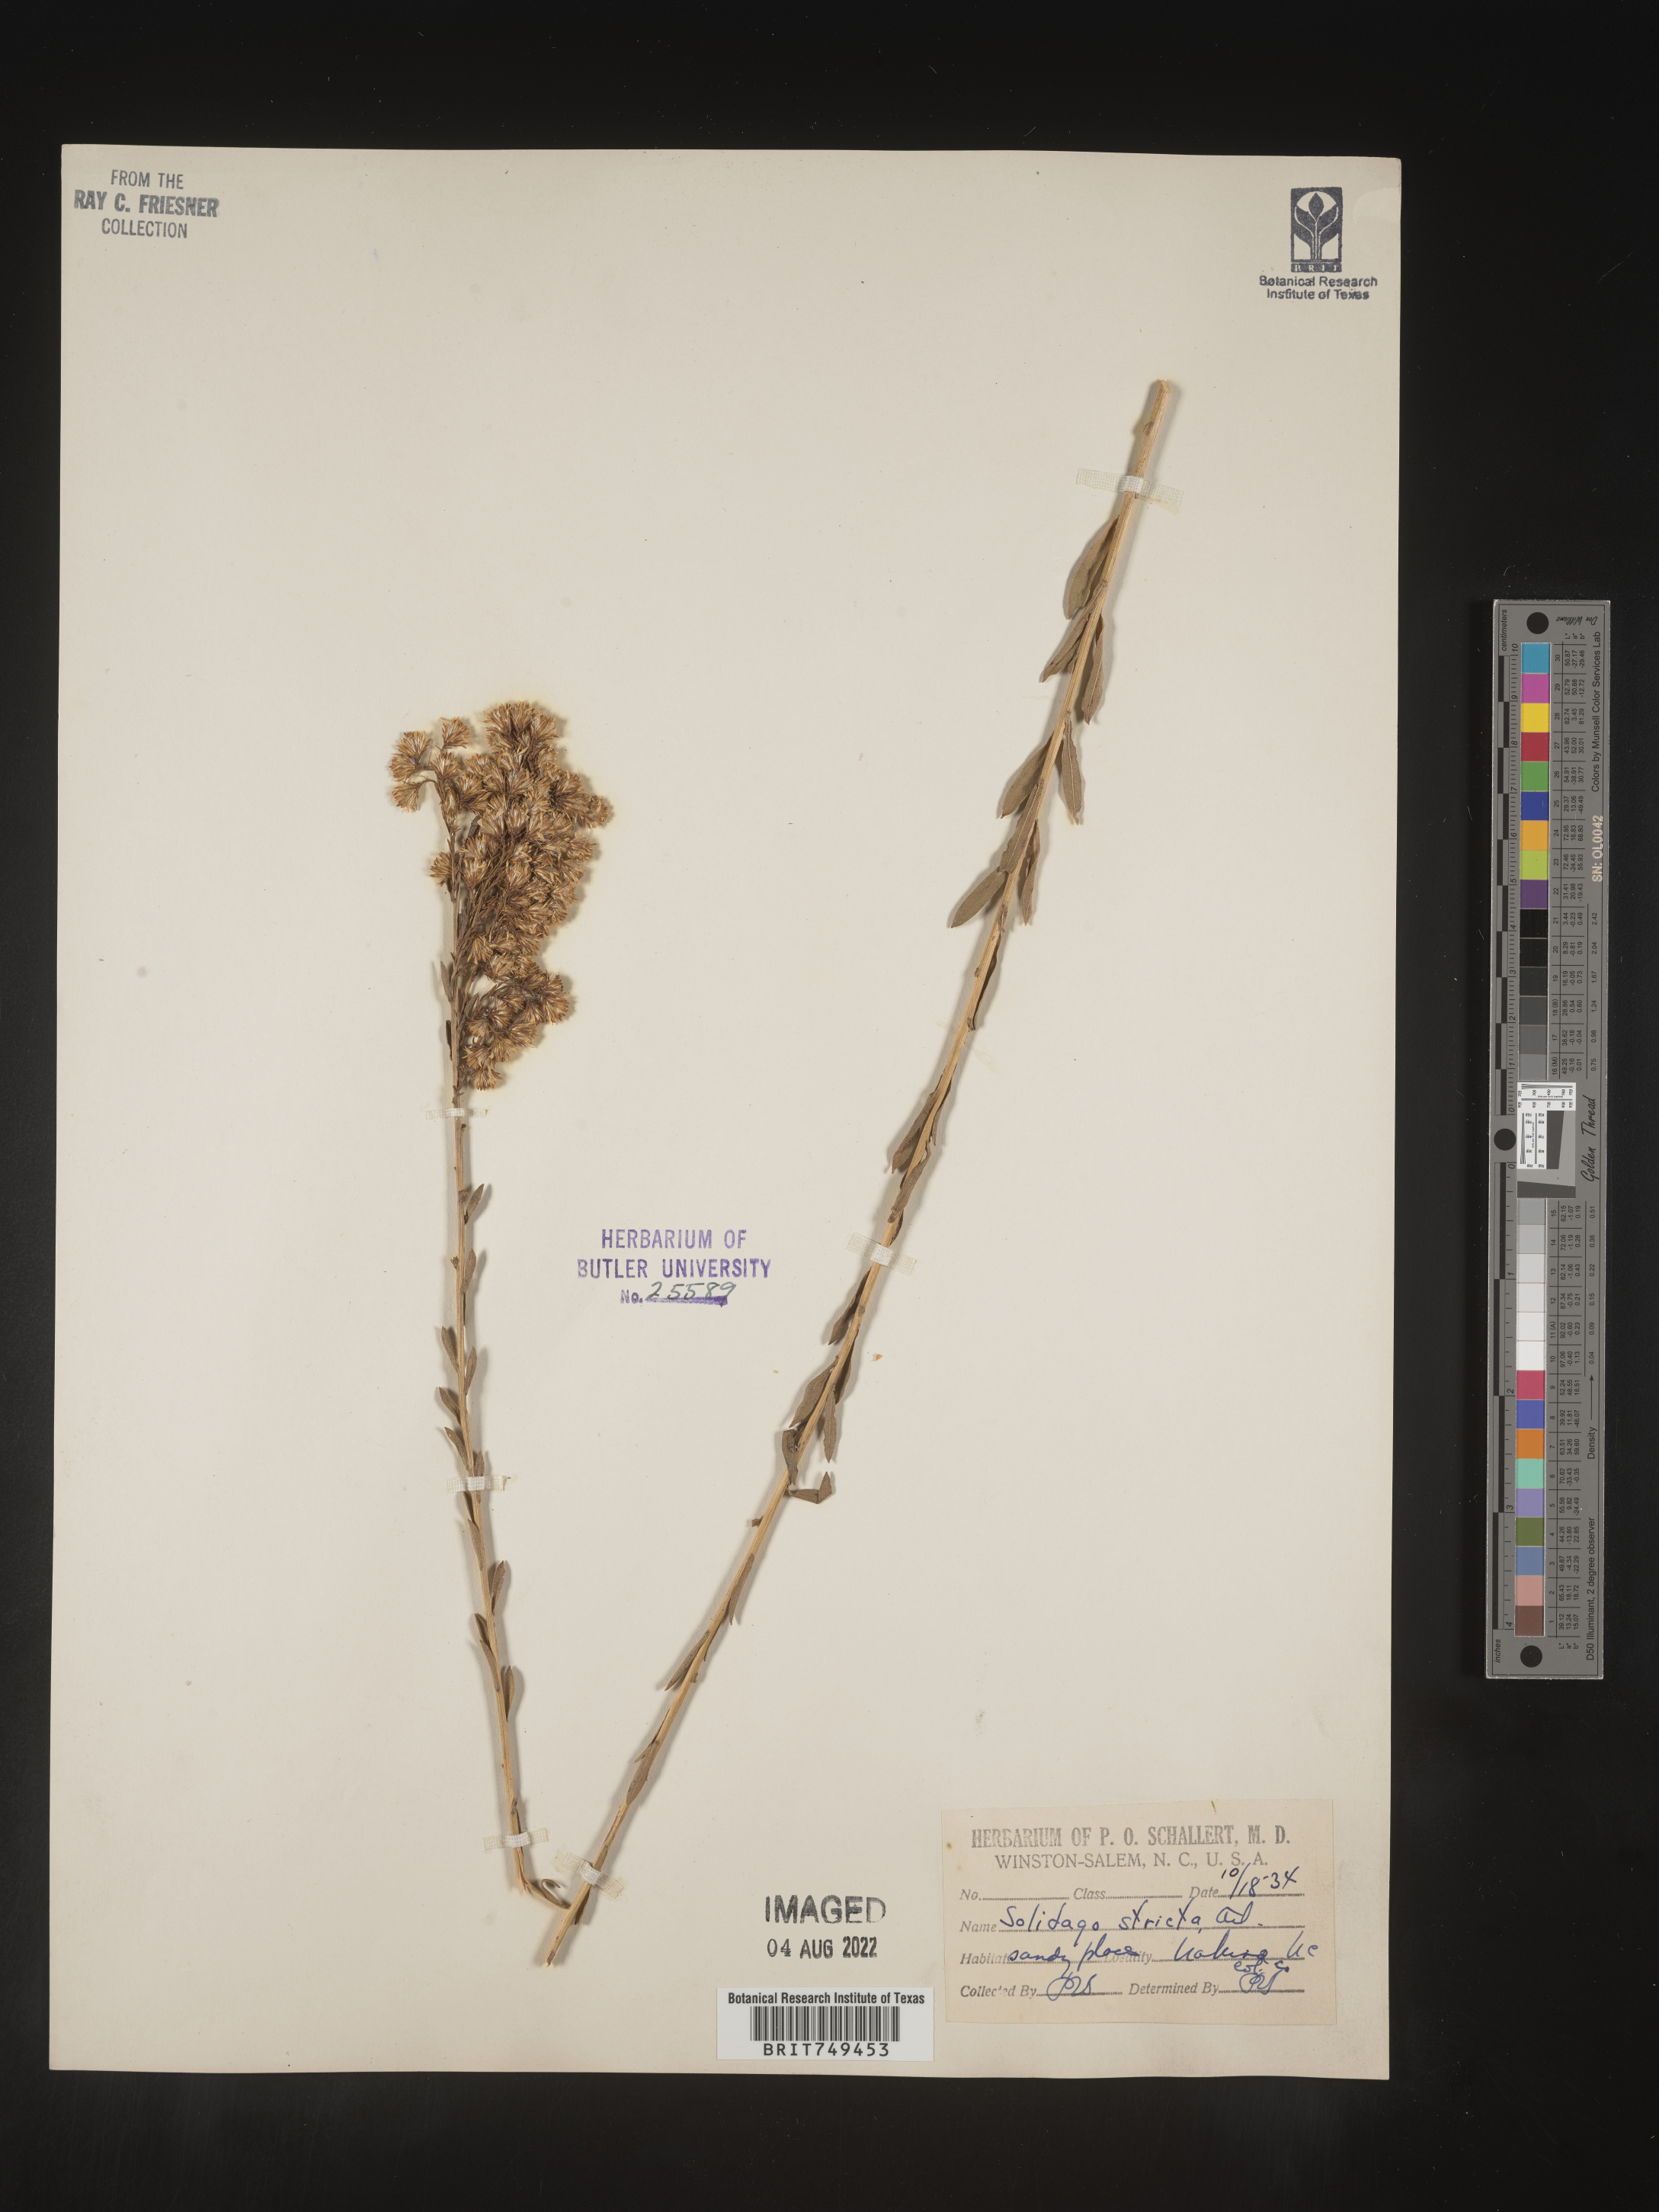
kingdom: Plantae
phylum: Tracheophyta
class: Magnoliopsida
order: Asterales
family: Asteraceae
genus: Solidago
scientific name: Solidago stricta
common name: Pine barren bog goldenrod
